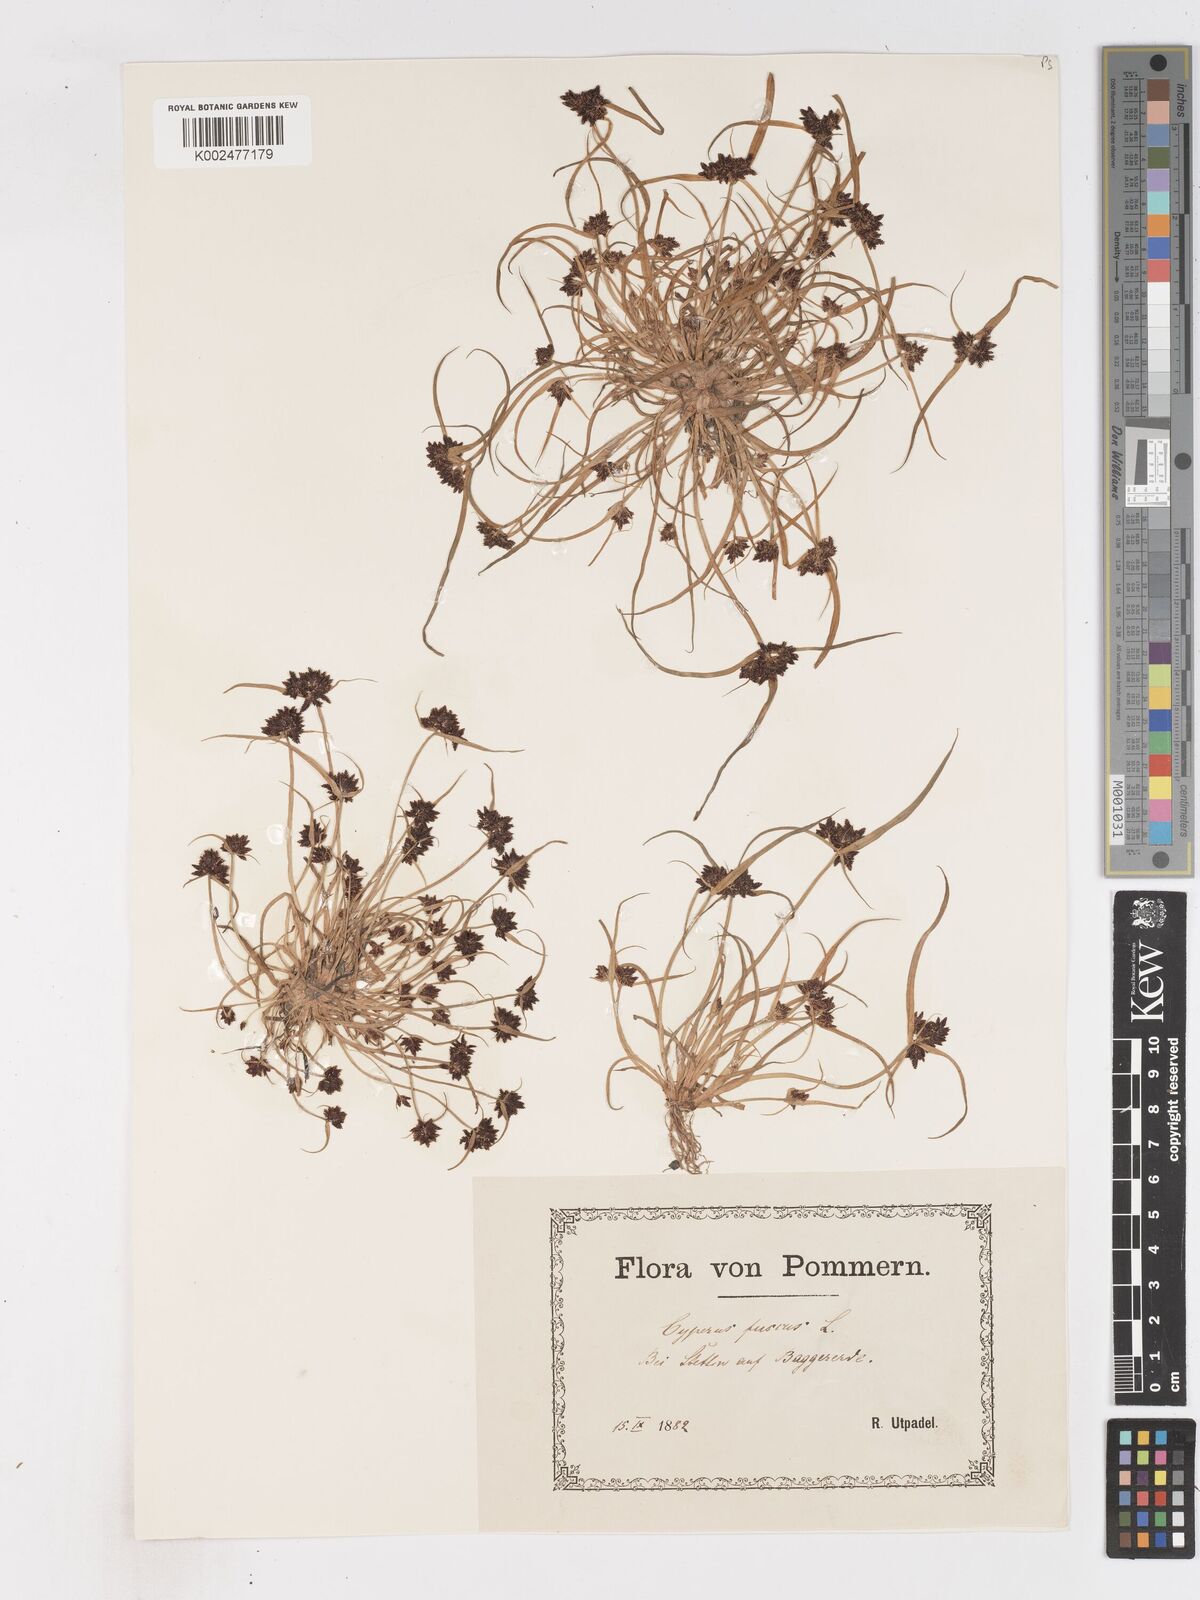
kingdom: Plantae
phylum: Tracheophyta
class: Liliopsida
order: Poales
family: Cyperaceae
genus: Cyperus
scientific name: Cyperus fuscus
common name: Brown galingale
